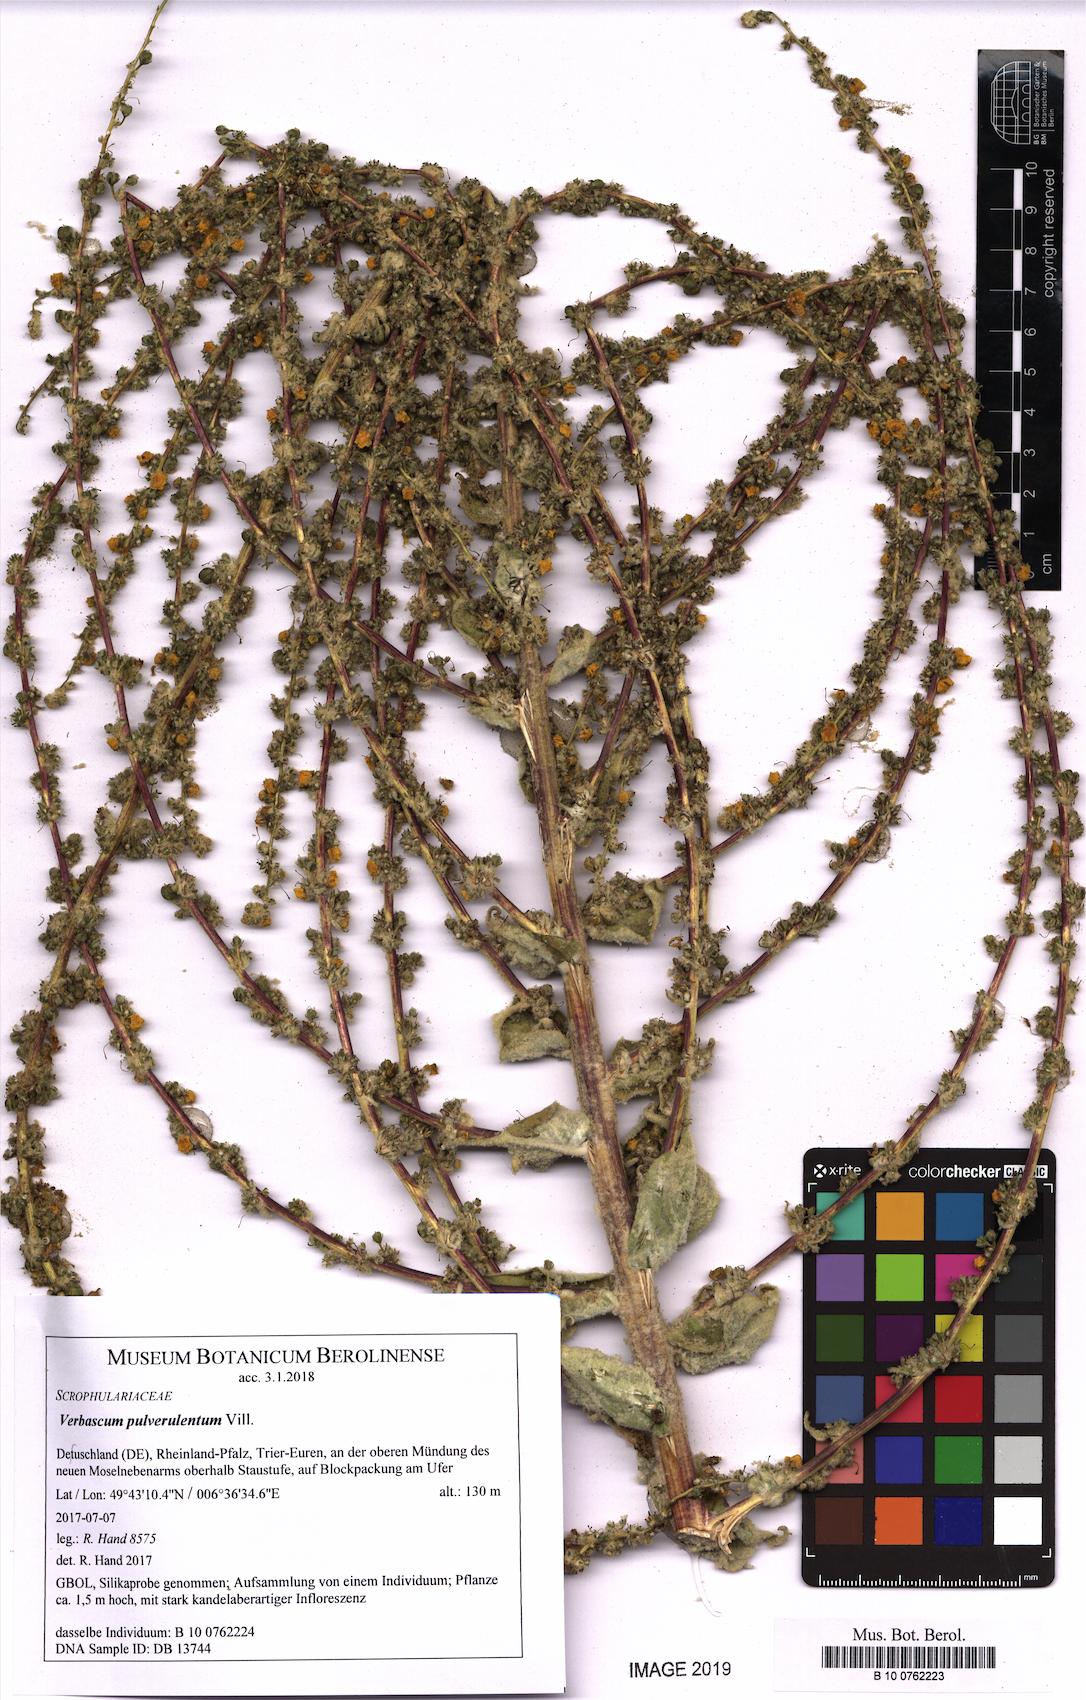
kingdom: Plantae
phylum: Tracheophyta
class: Magnoliopsida
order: Lamiales
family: Scrophulariaceae
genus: Verbascum
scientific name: Verbascum pulverulentum
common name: Broad-leaf mullein
